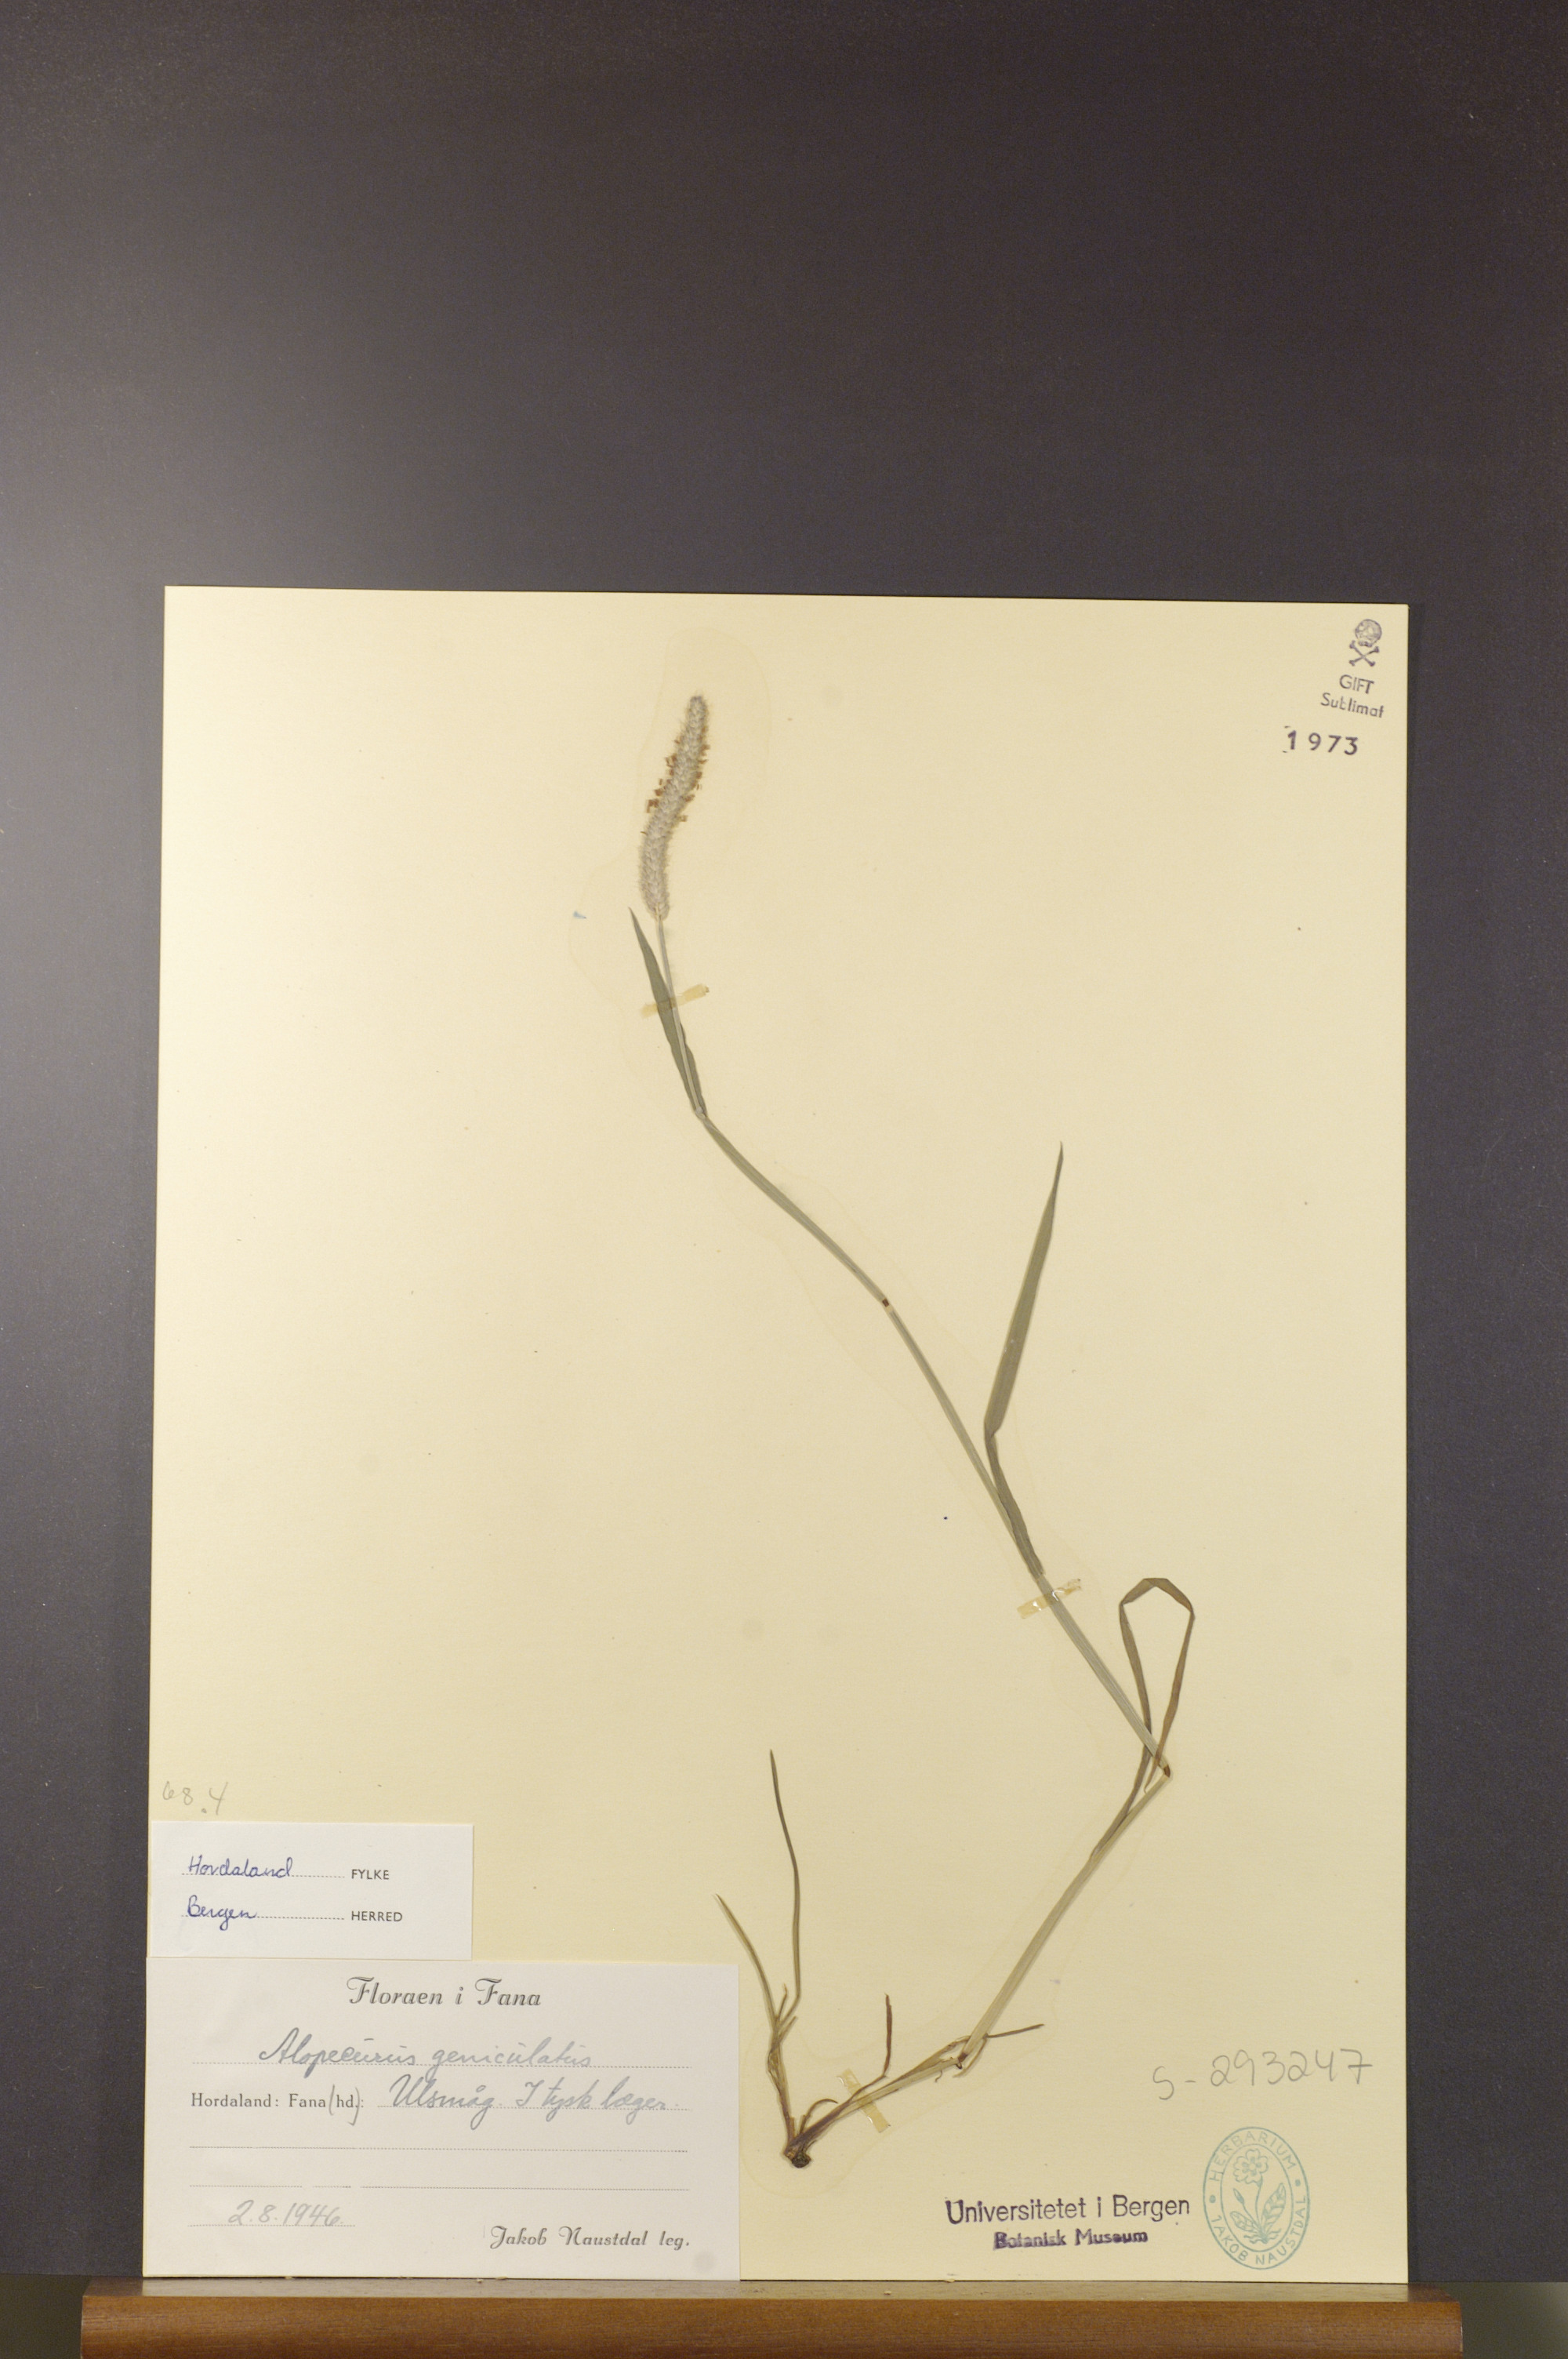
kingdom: Plantae
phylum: Tracheophyta
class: Liliopsida
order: Poales
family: Poaceae
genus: Alopecurus
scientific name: Alopecurus geniculatus
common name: Water foxtail
